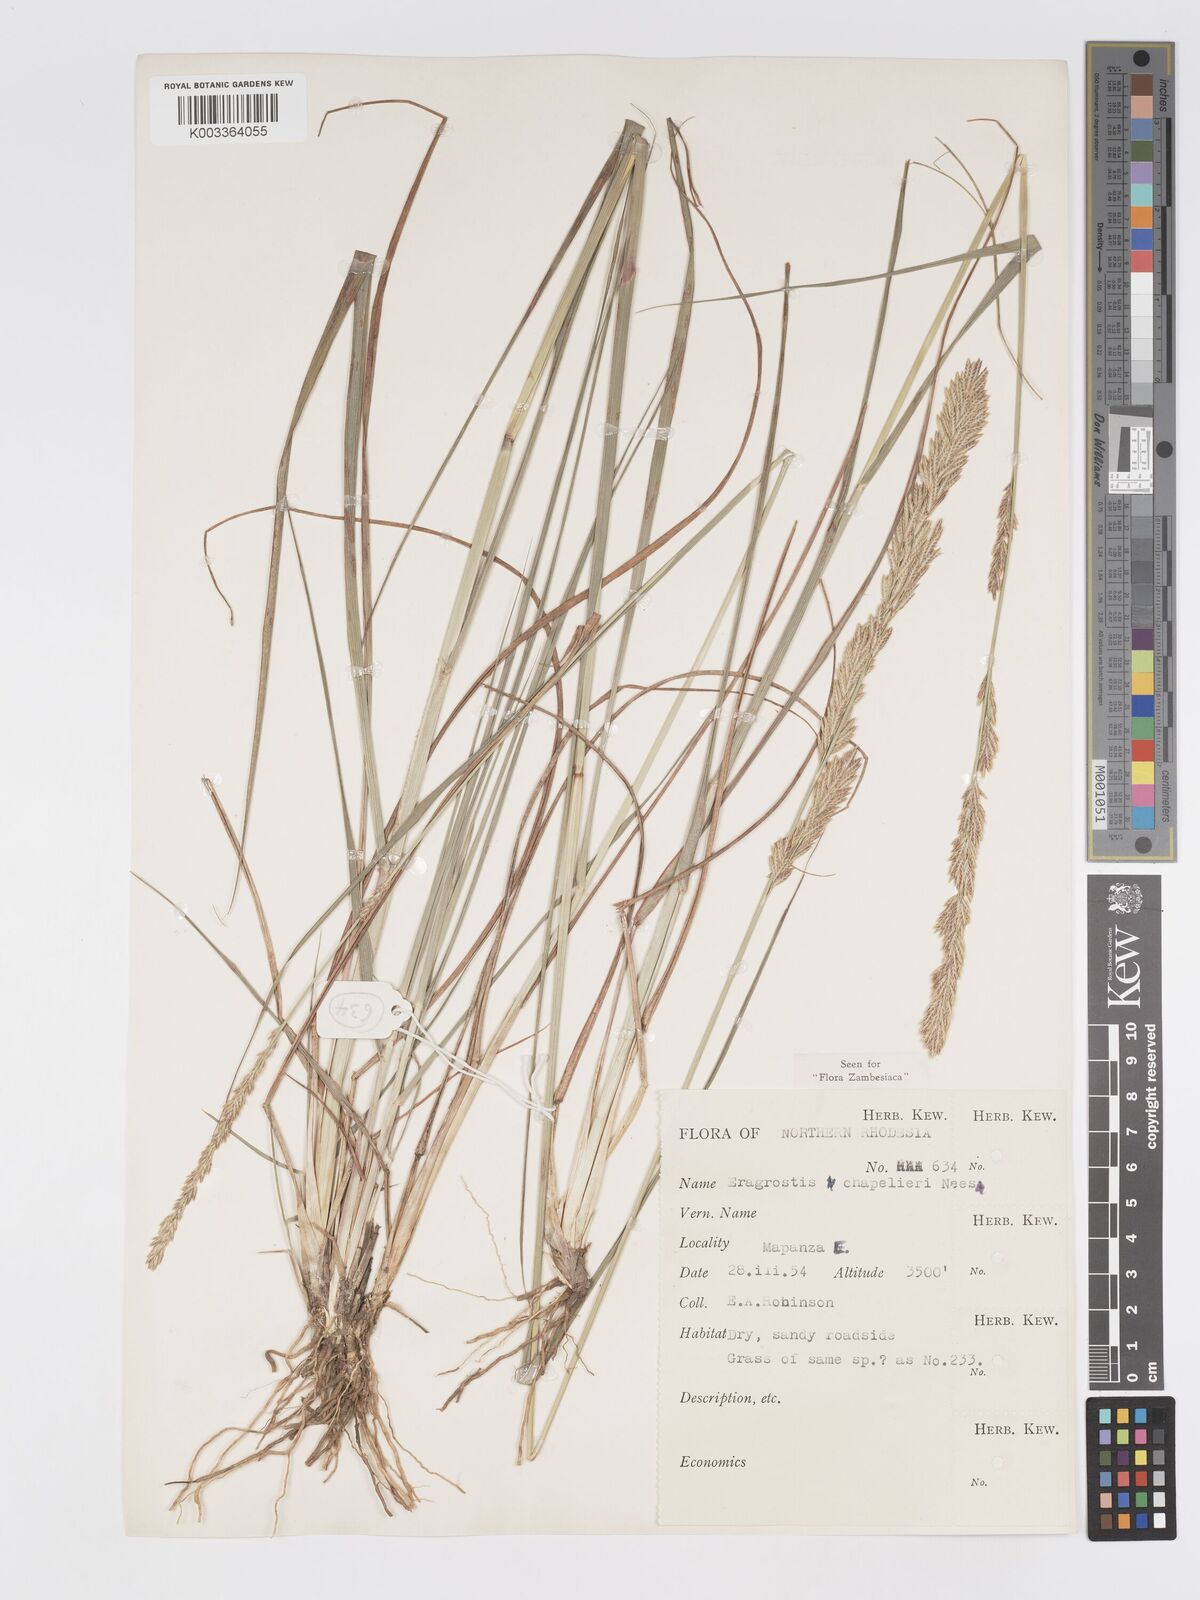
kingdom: Plantae
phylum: Tracheophyta
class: Liliopsida
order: Poales
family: Poaceae
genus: Eragrostis
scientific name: Eragrostis chapelieri
